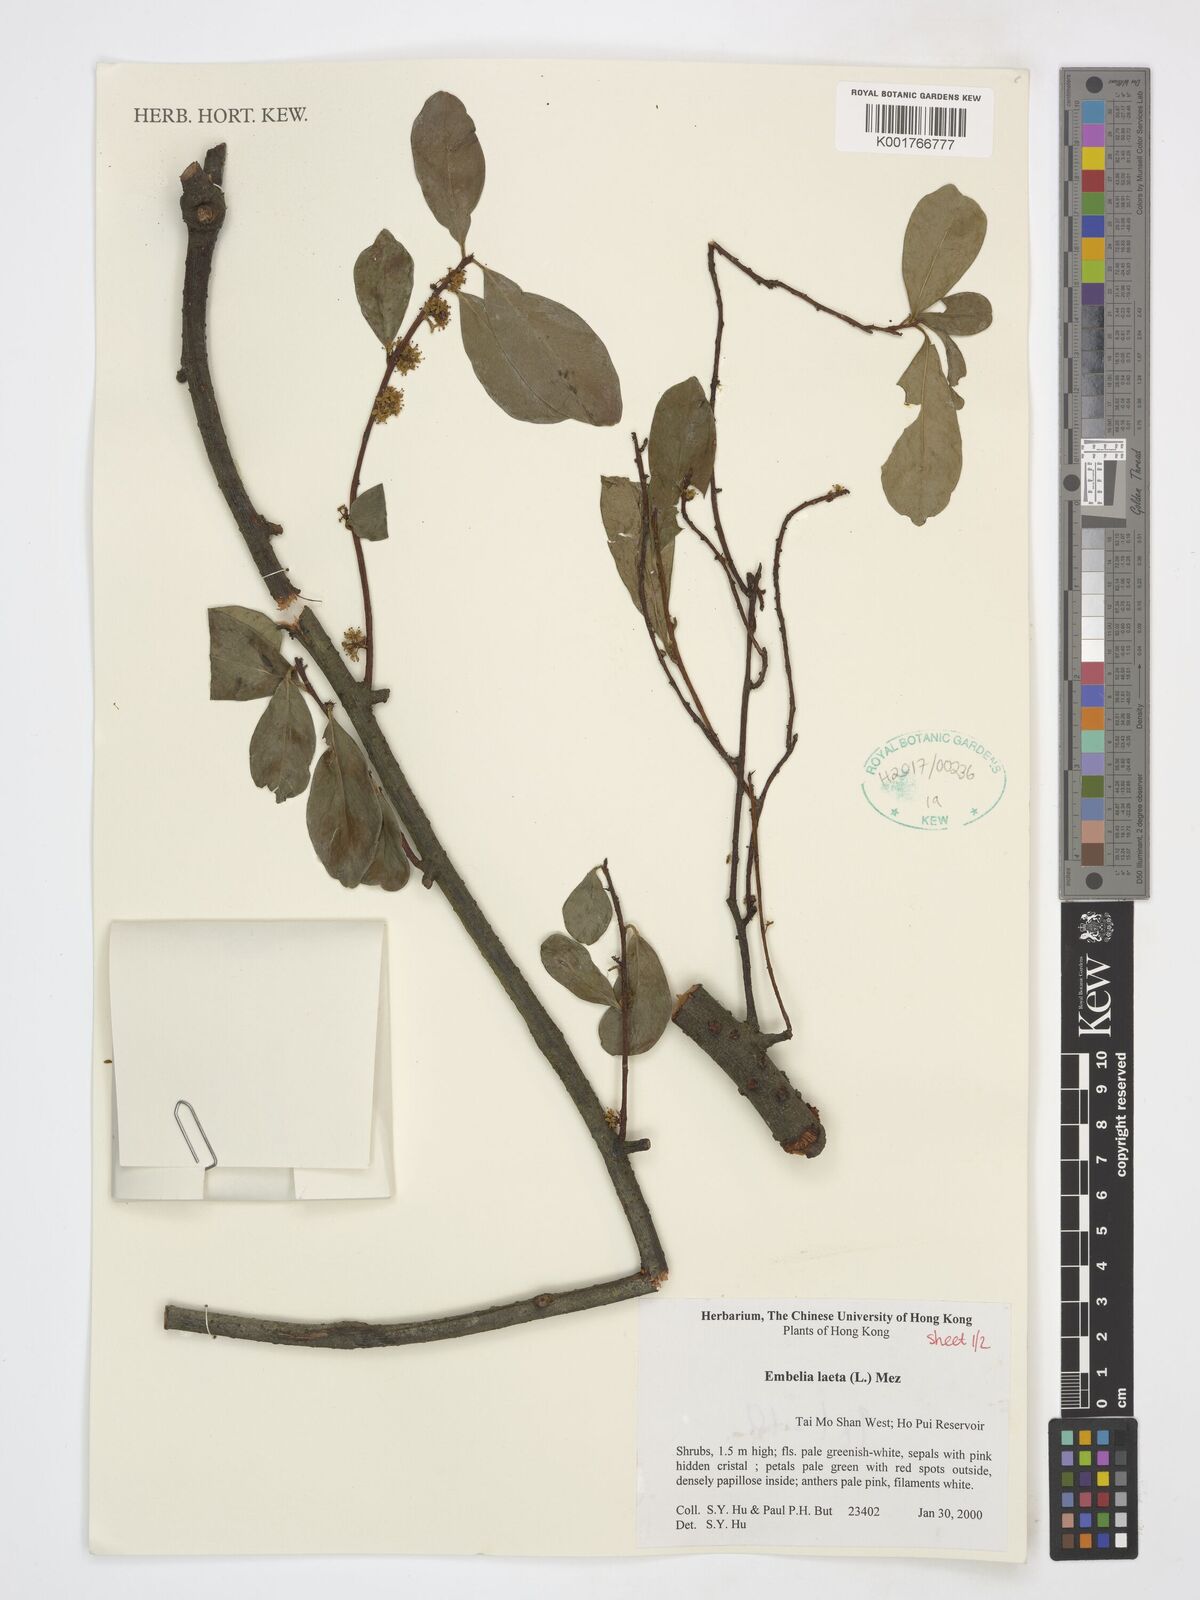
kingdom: Plantae
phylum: Tracheophyta
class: Magnoliopsida
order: Ericales
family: Primulaceae
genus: Embelia
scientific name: Embelia laeta
